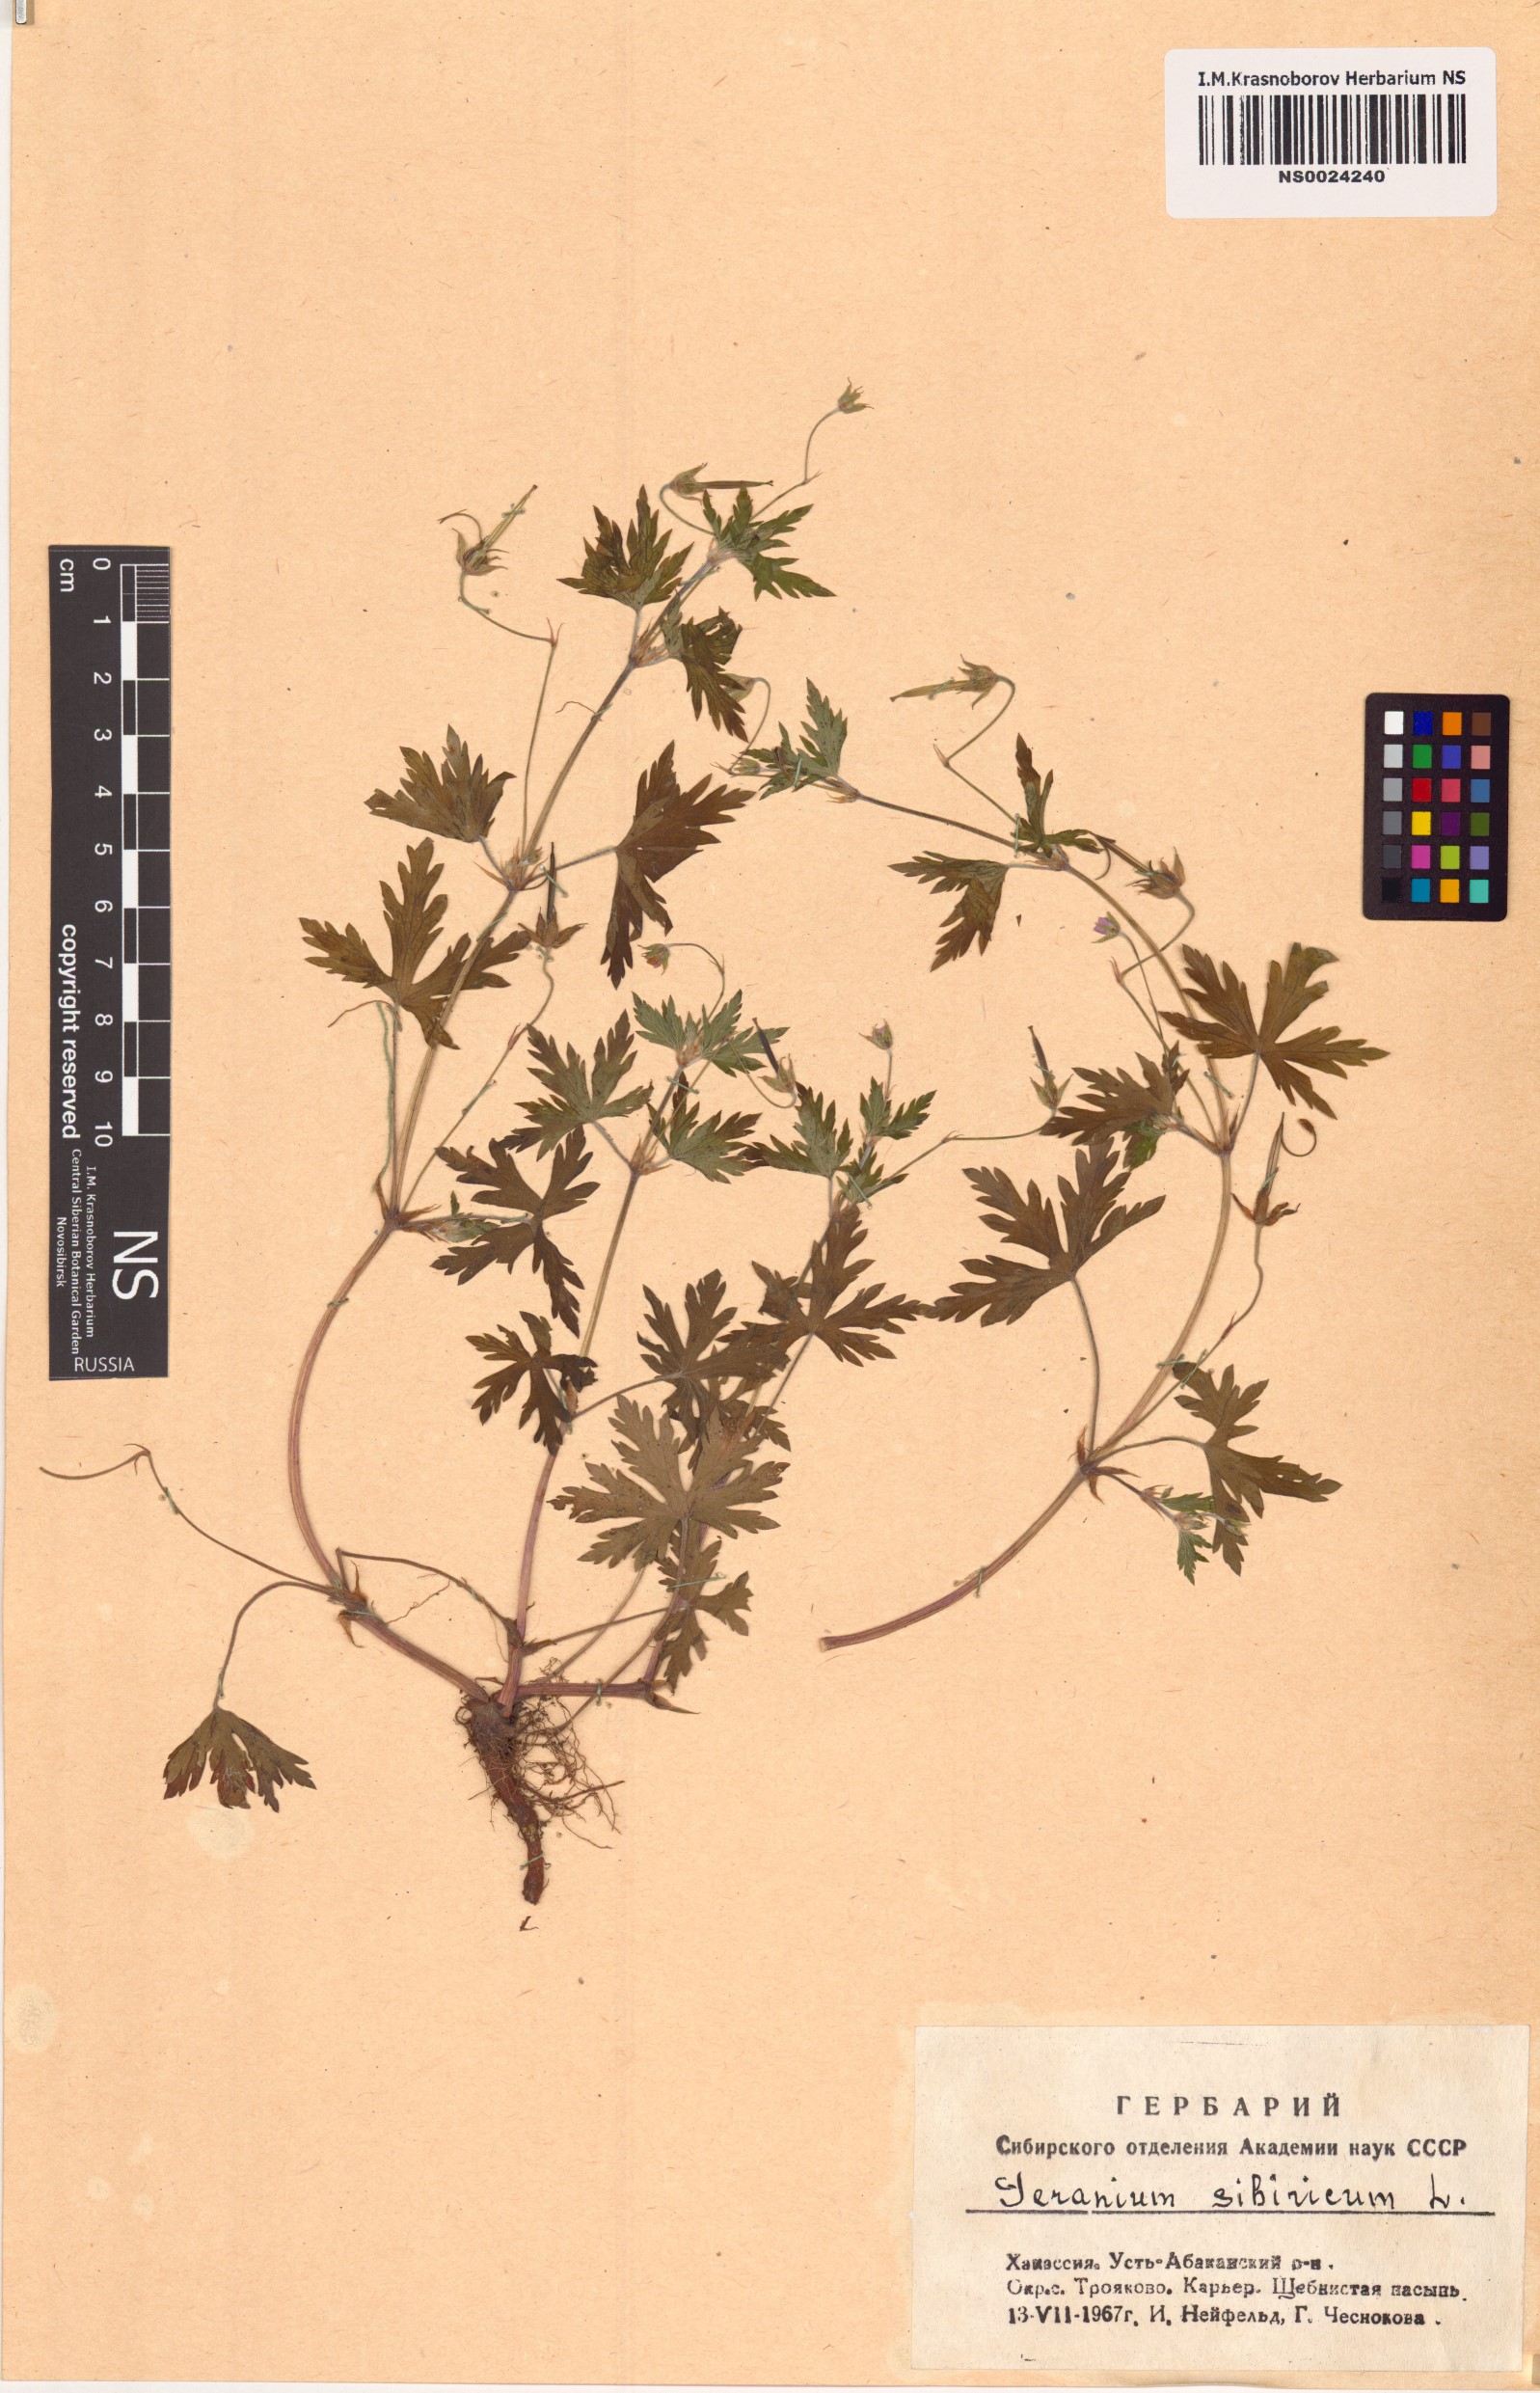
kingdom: Plantae
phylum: Tracheophyta
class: Magnoliopsida
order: Geraniales
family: Geraniaceae
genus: Geranium
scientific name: Geranium sibiricum
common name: Siberian crane's-bill
